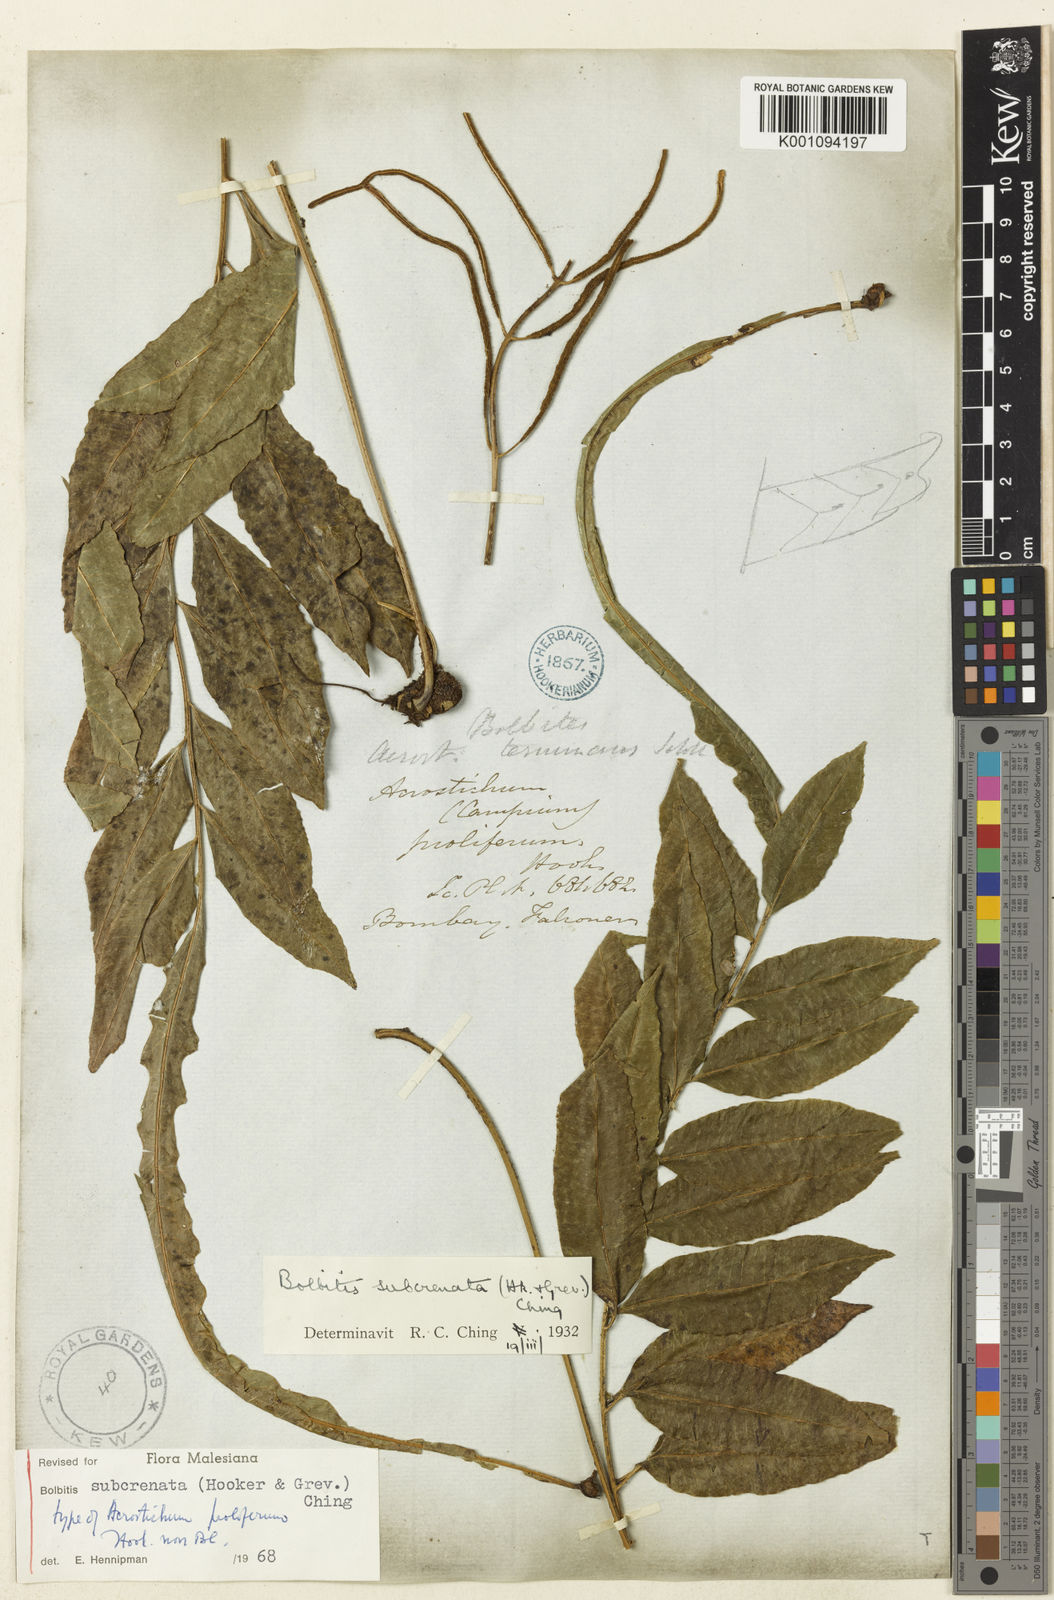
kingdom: Plantae
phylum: Tracheophyta
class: Polypodiopsida
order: Polypodiales
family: Dryopteridaceae
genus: Bolbitis
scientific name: Bolbitis subcrenata
